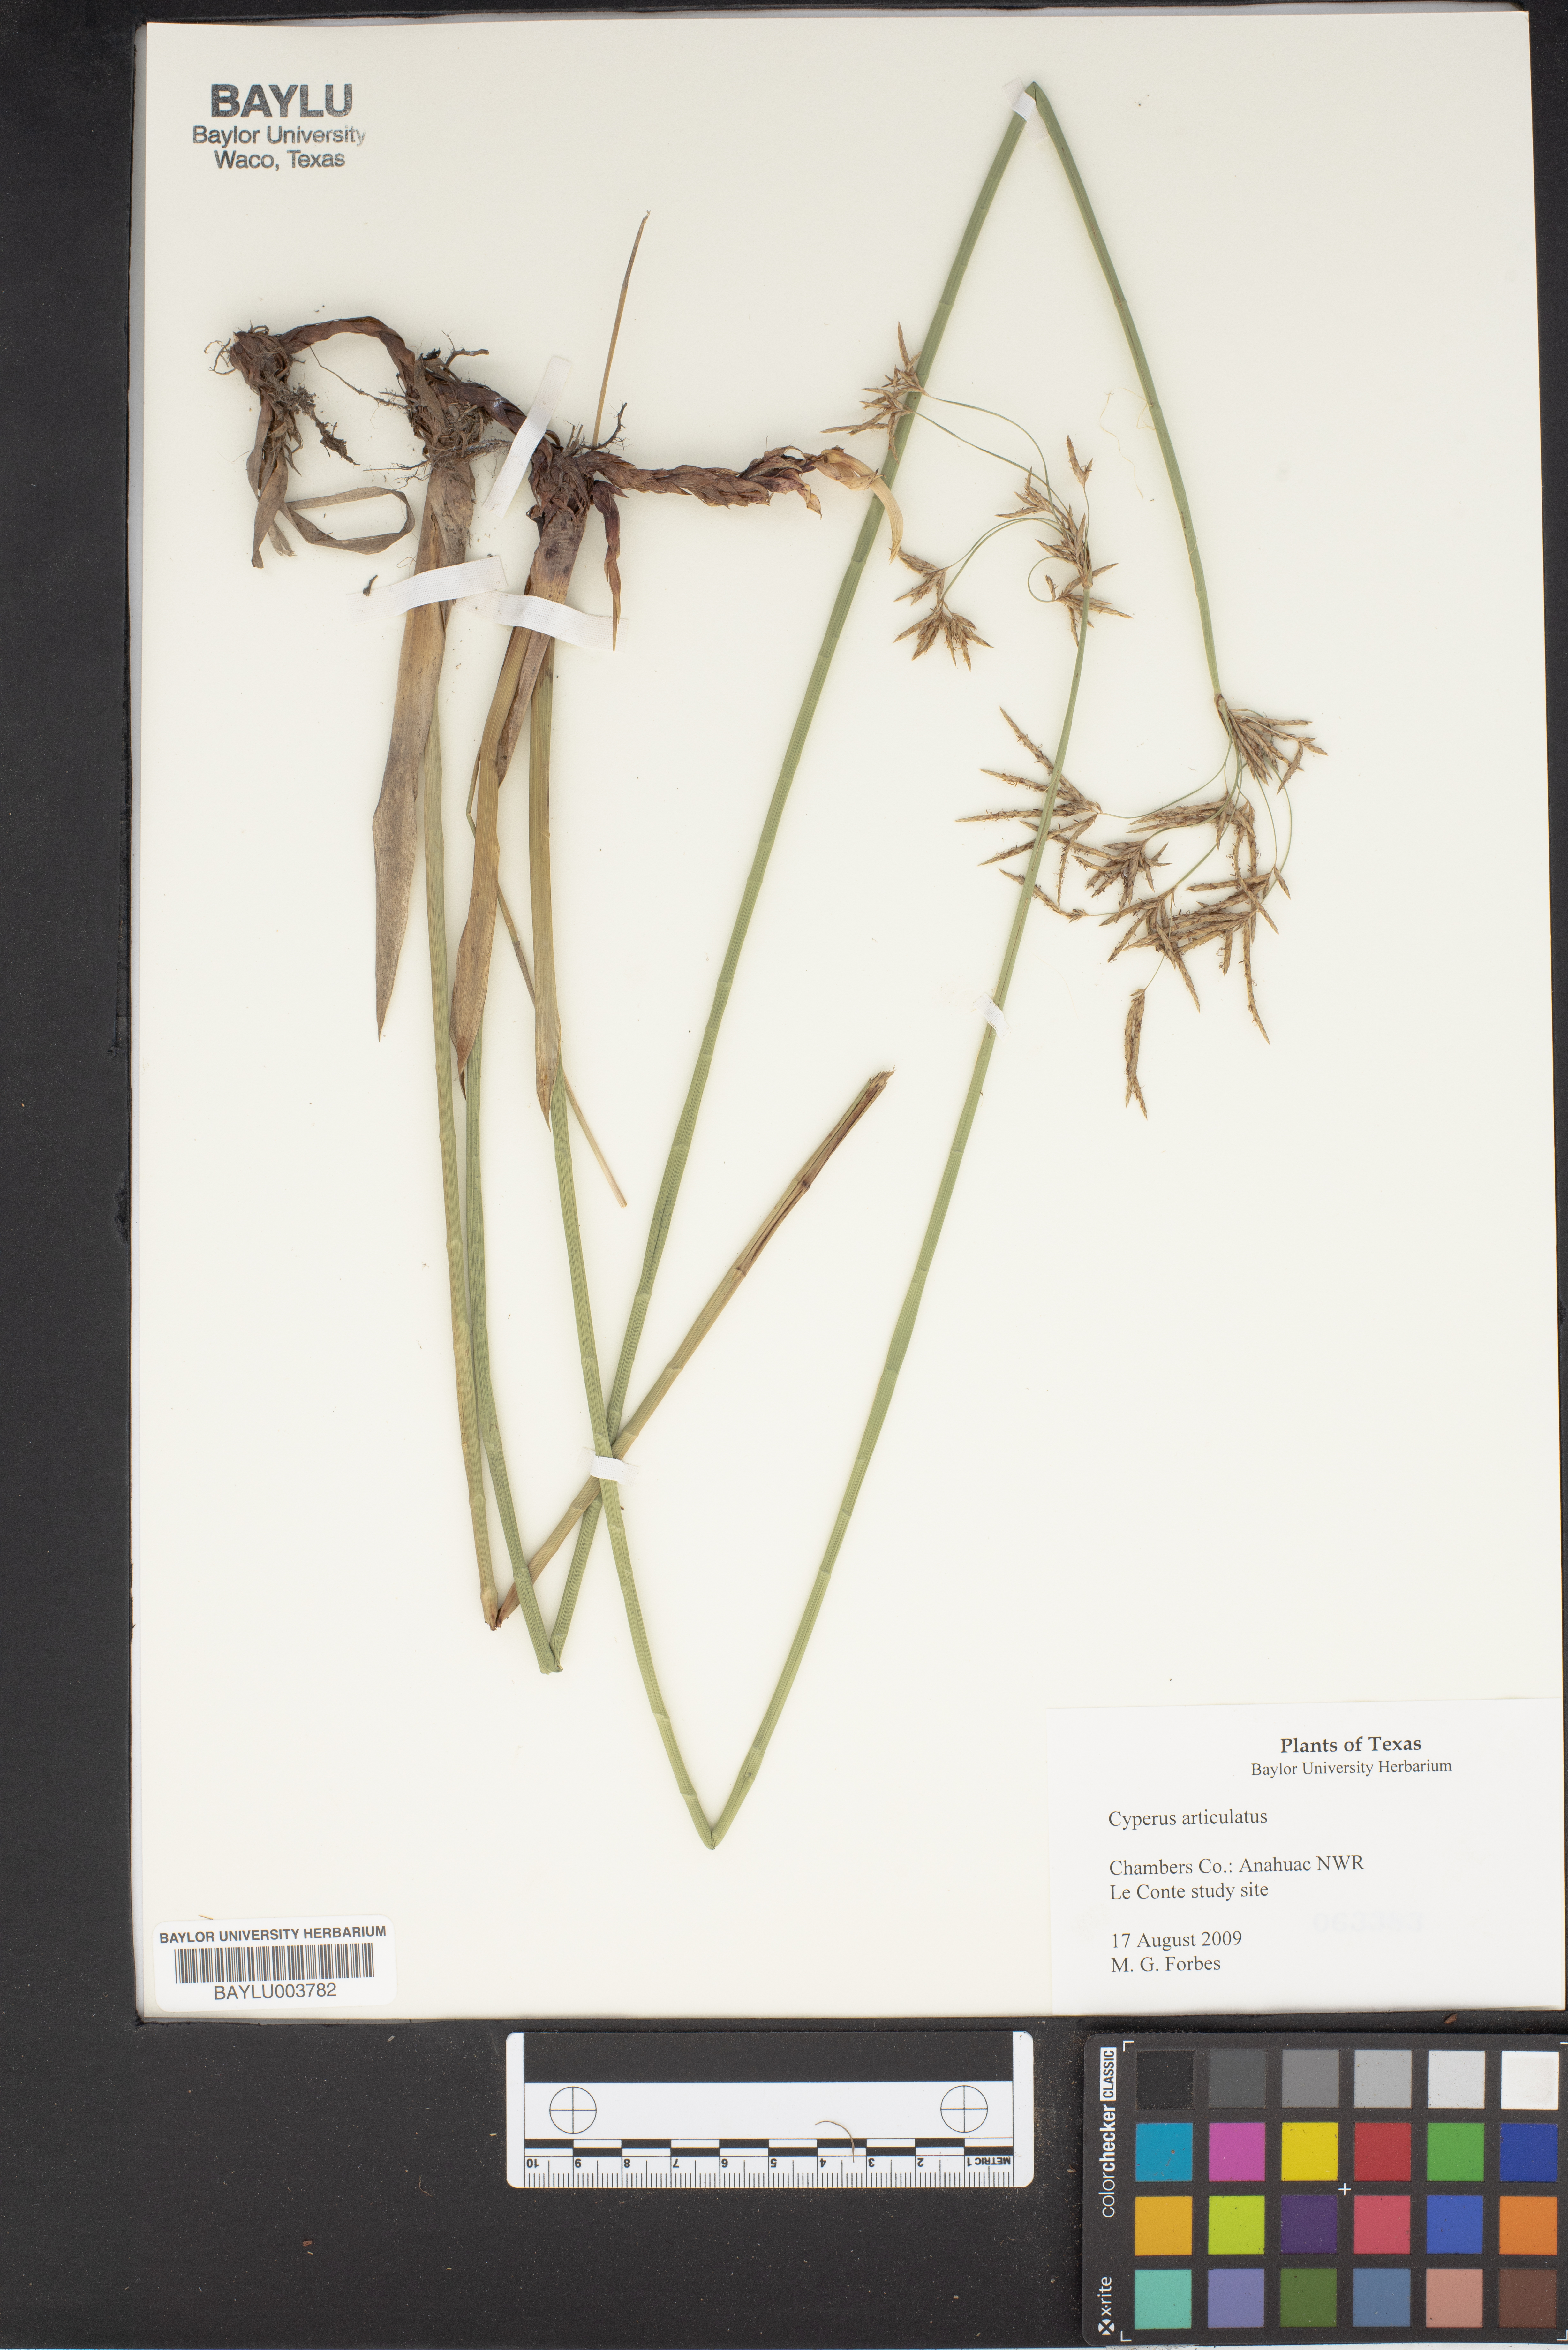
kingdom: Plantae
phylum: Tracheophyta
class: Liliopsida
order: Poales
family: Cyperaceae
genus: Cyperus
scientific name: Cyperus articulatus
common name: Jointed flatsedge
